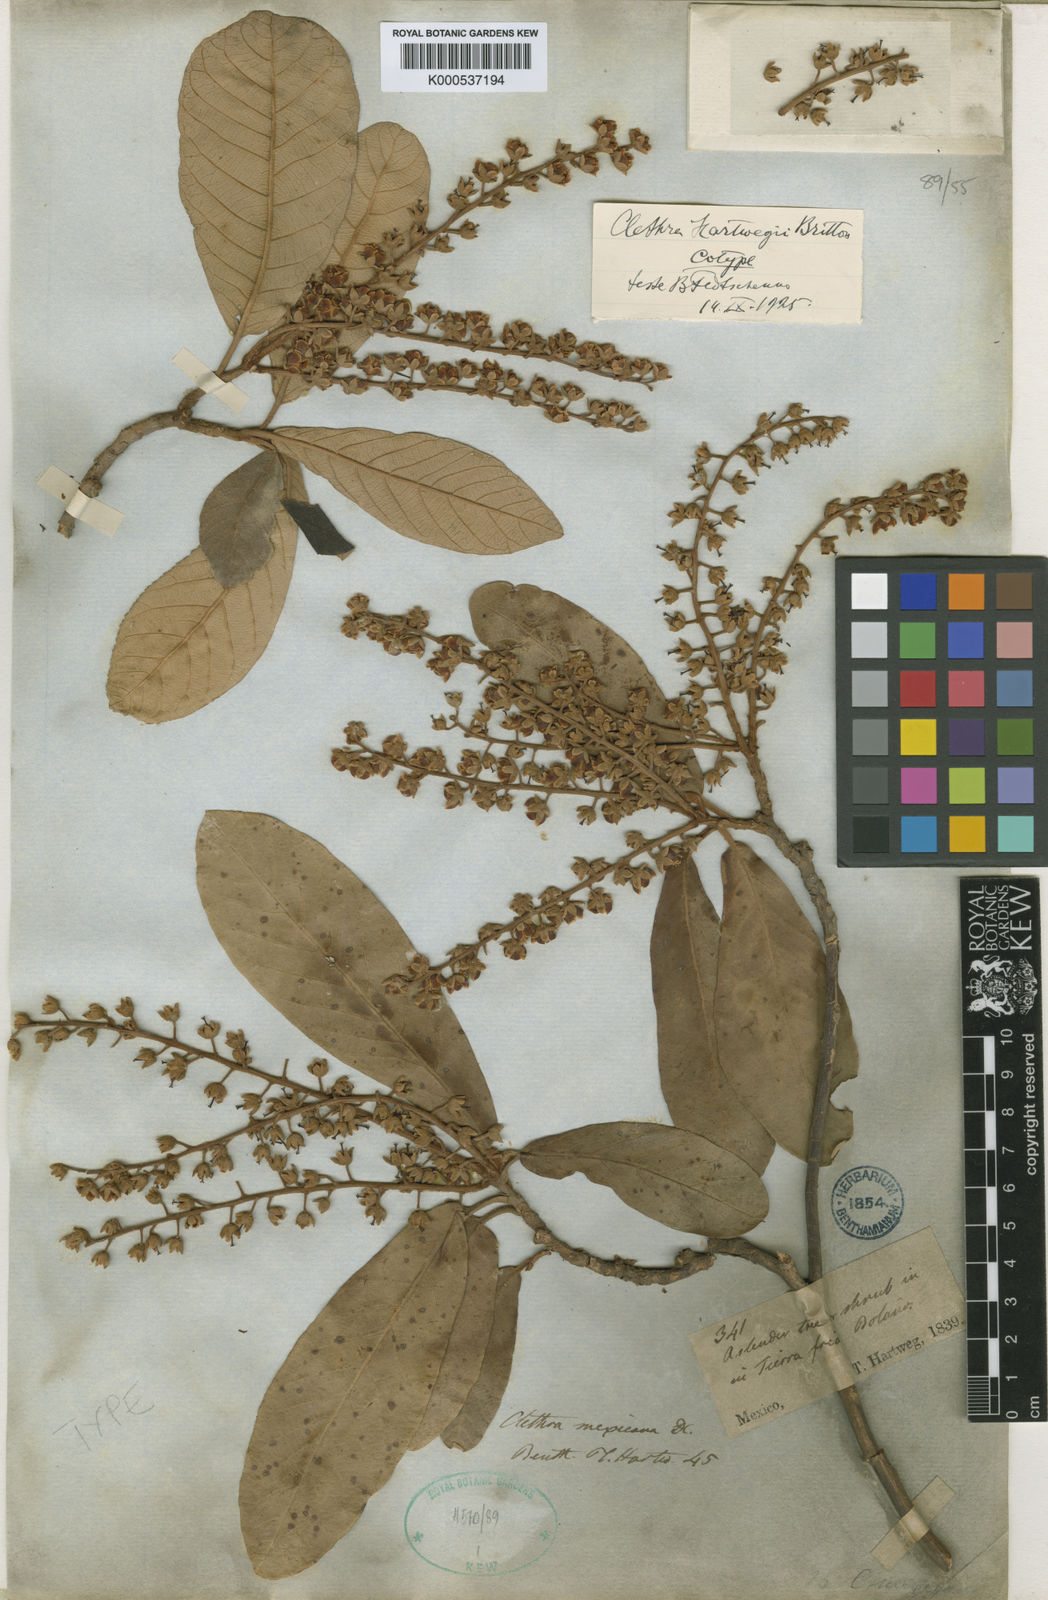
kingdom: Plantae
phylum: Tracheophyta
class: Magnoliopsida
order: Ericales
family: Clethraceae
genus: Clethra
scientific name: Clethra hartwegii
